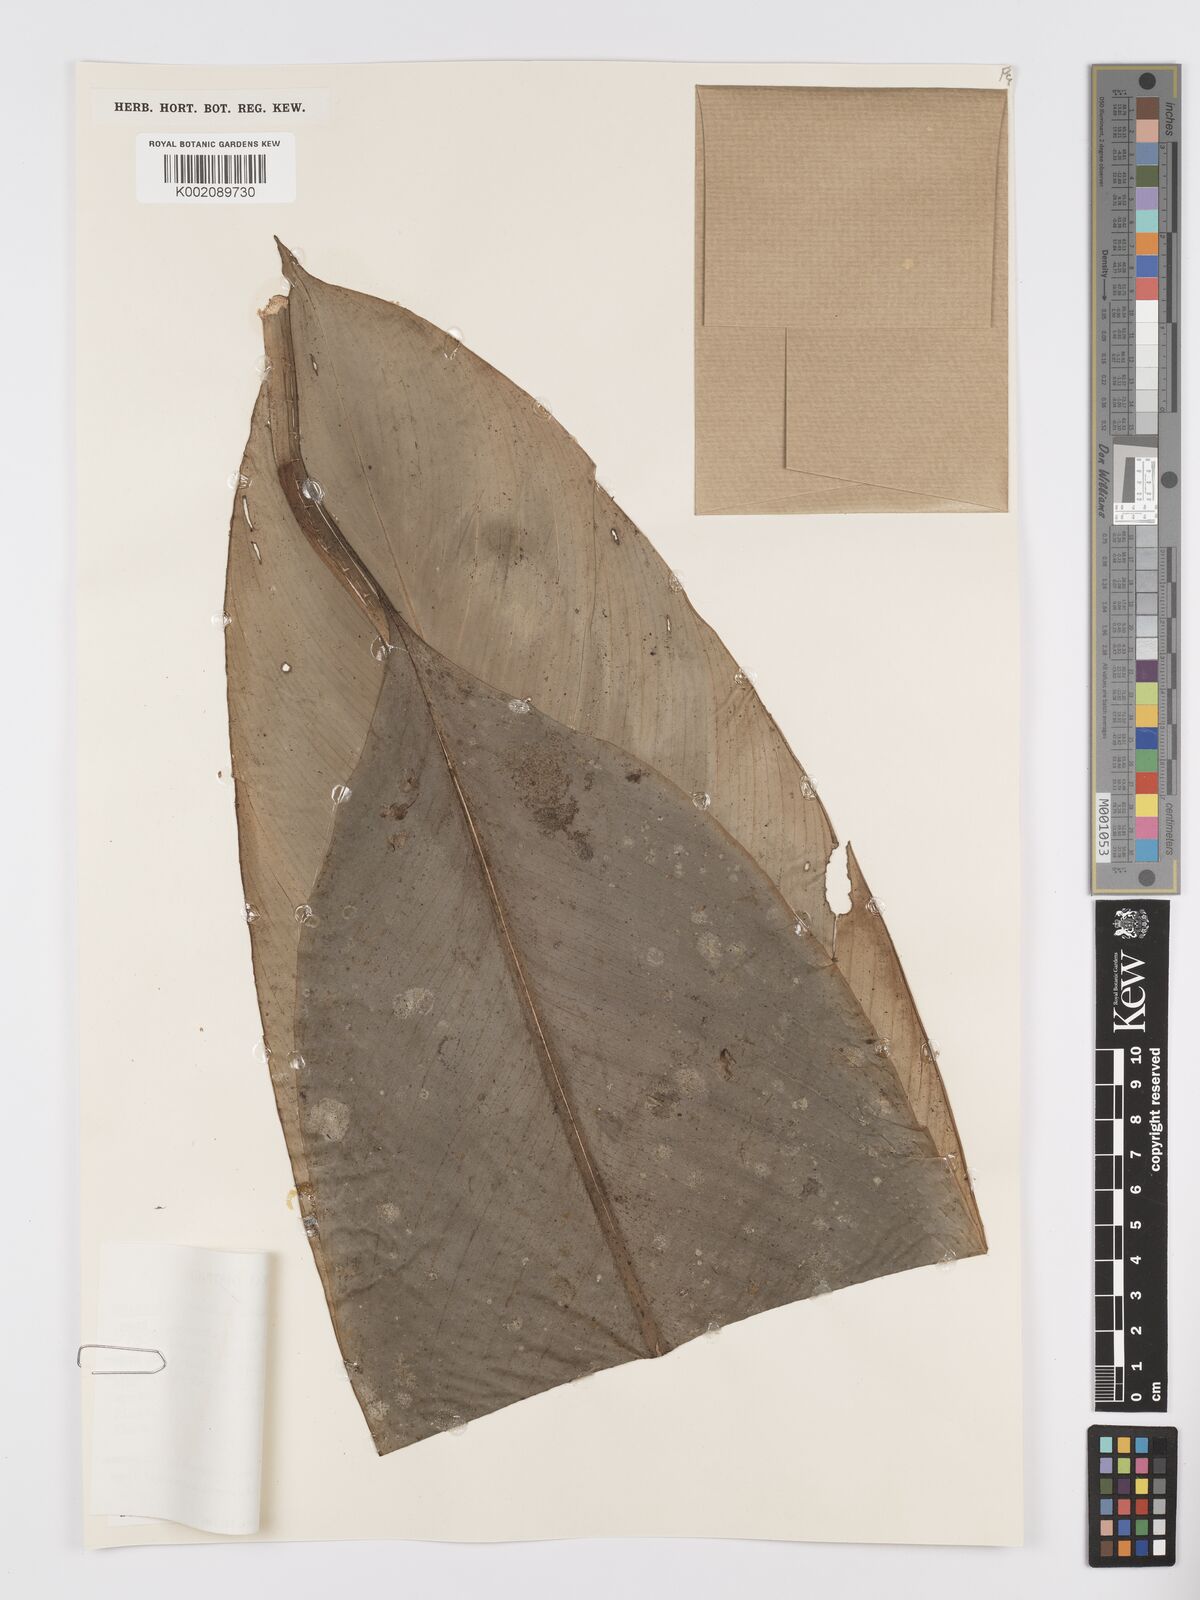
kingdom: Plantae
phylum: Tracheophyta
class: Liliopsida
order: Alismatales
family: Araceae
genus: Holochlamys
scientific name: Holochlamys beccarii
